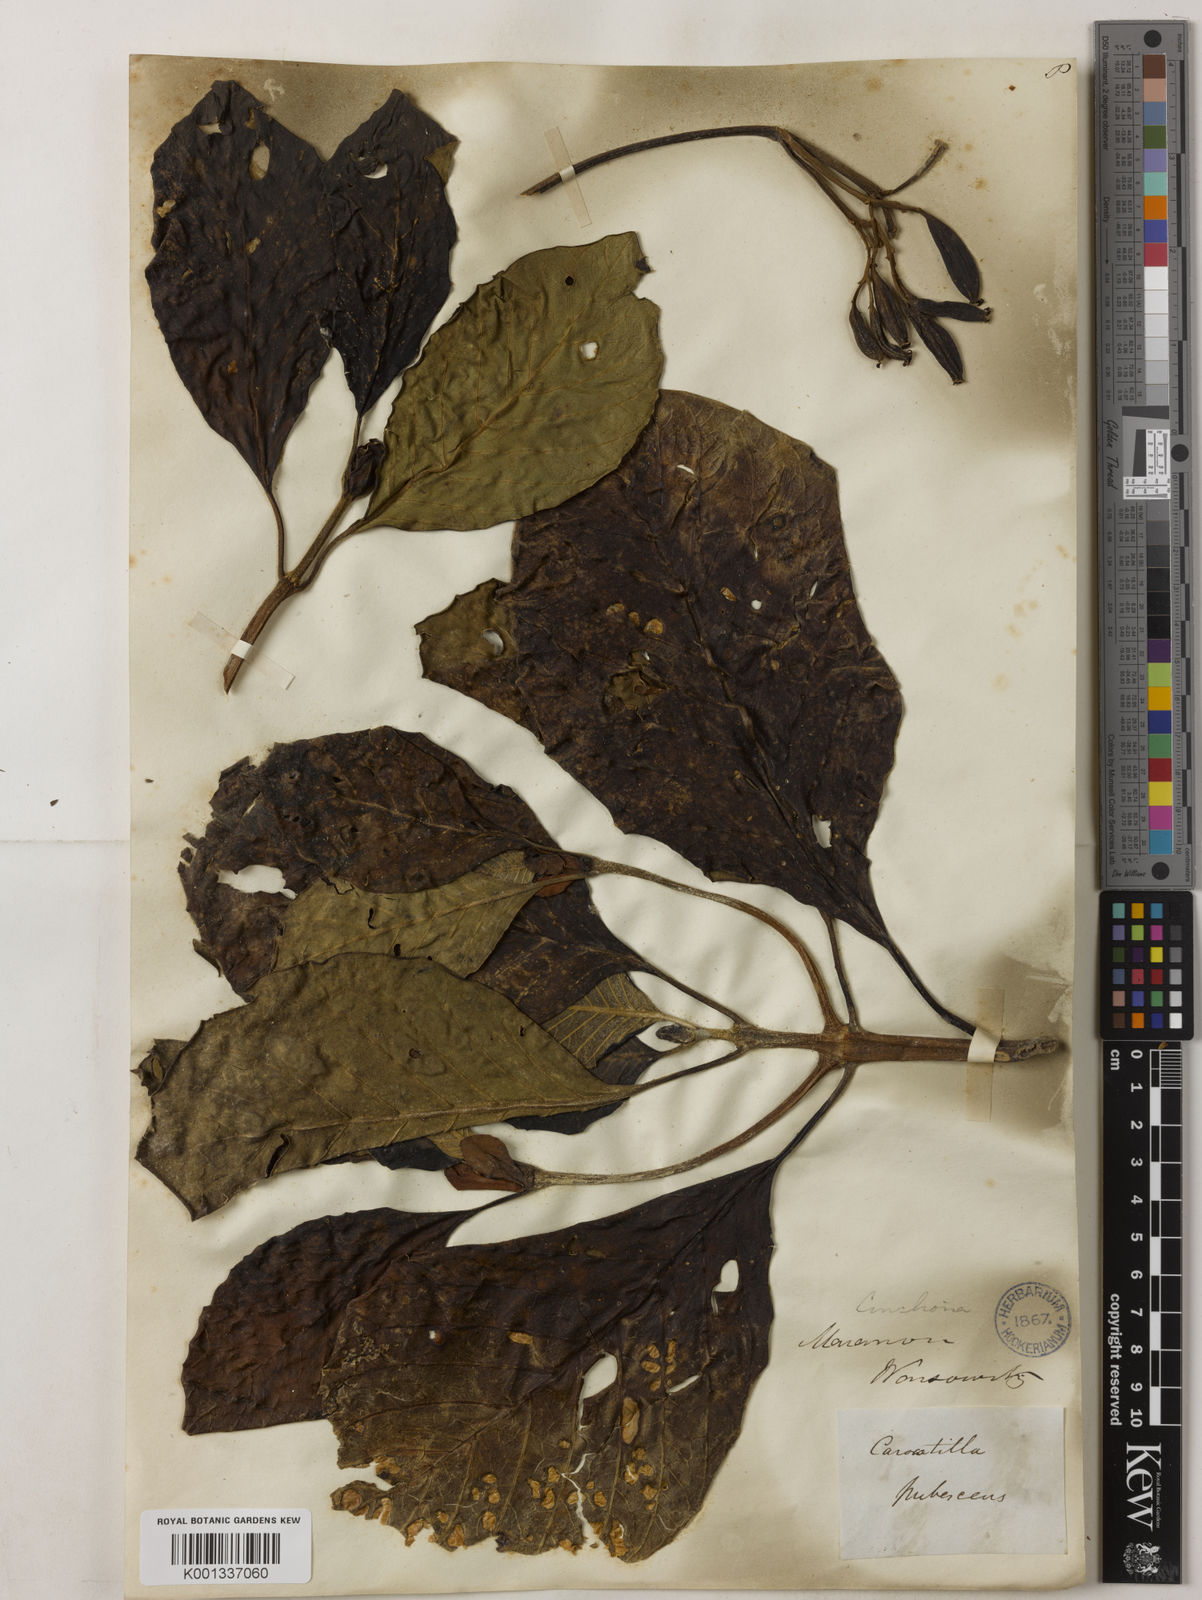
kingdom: Plantae
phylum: Tracheophyta
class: Magnoliopsida
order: Gentianales
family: Rubiaceae
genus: Cinchona
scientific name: Cinchona pubescens
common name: Quinine
